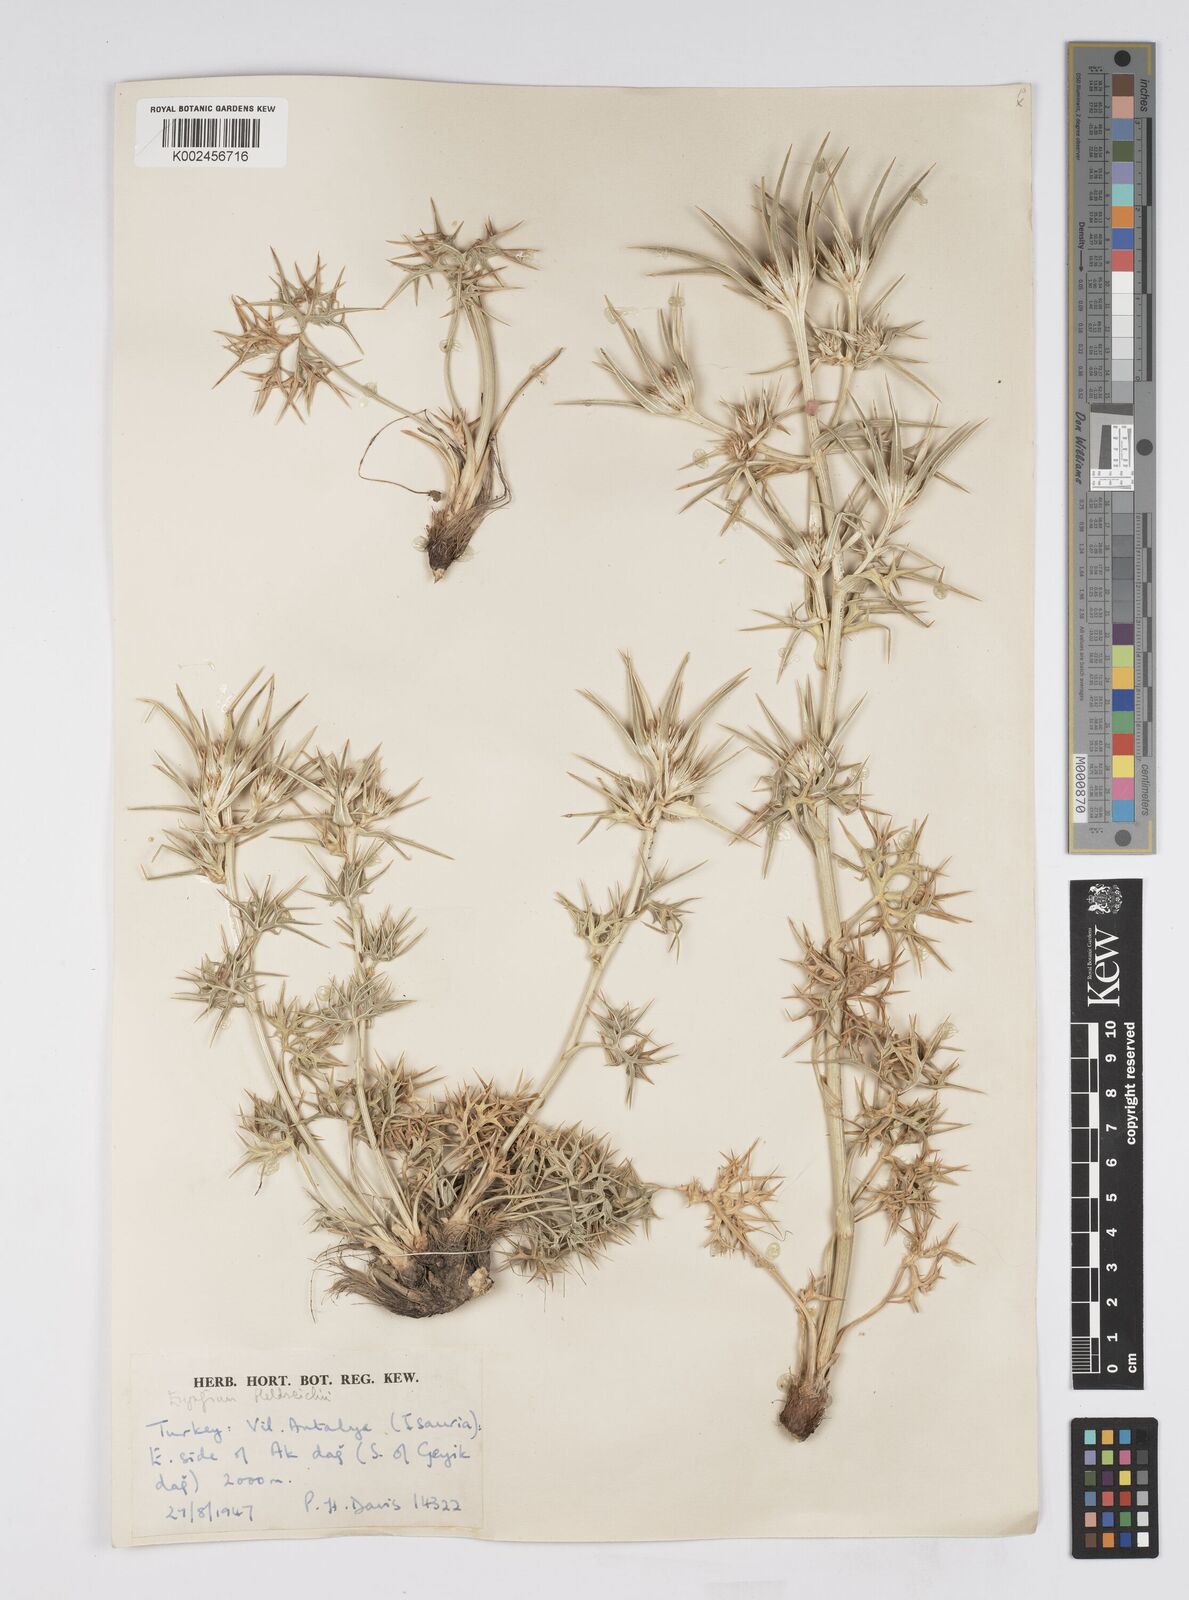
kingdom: Plantae
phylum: Tracheophyta
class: Magnoliopsida
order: Apiales
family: Apiaceae
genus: Eryngium
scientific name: Eryngium heldreichii
